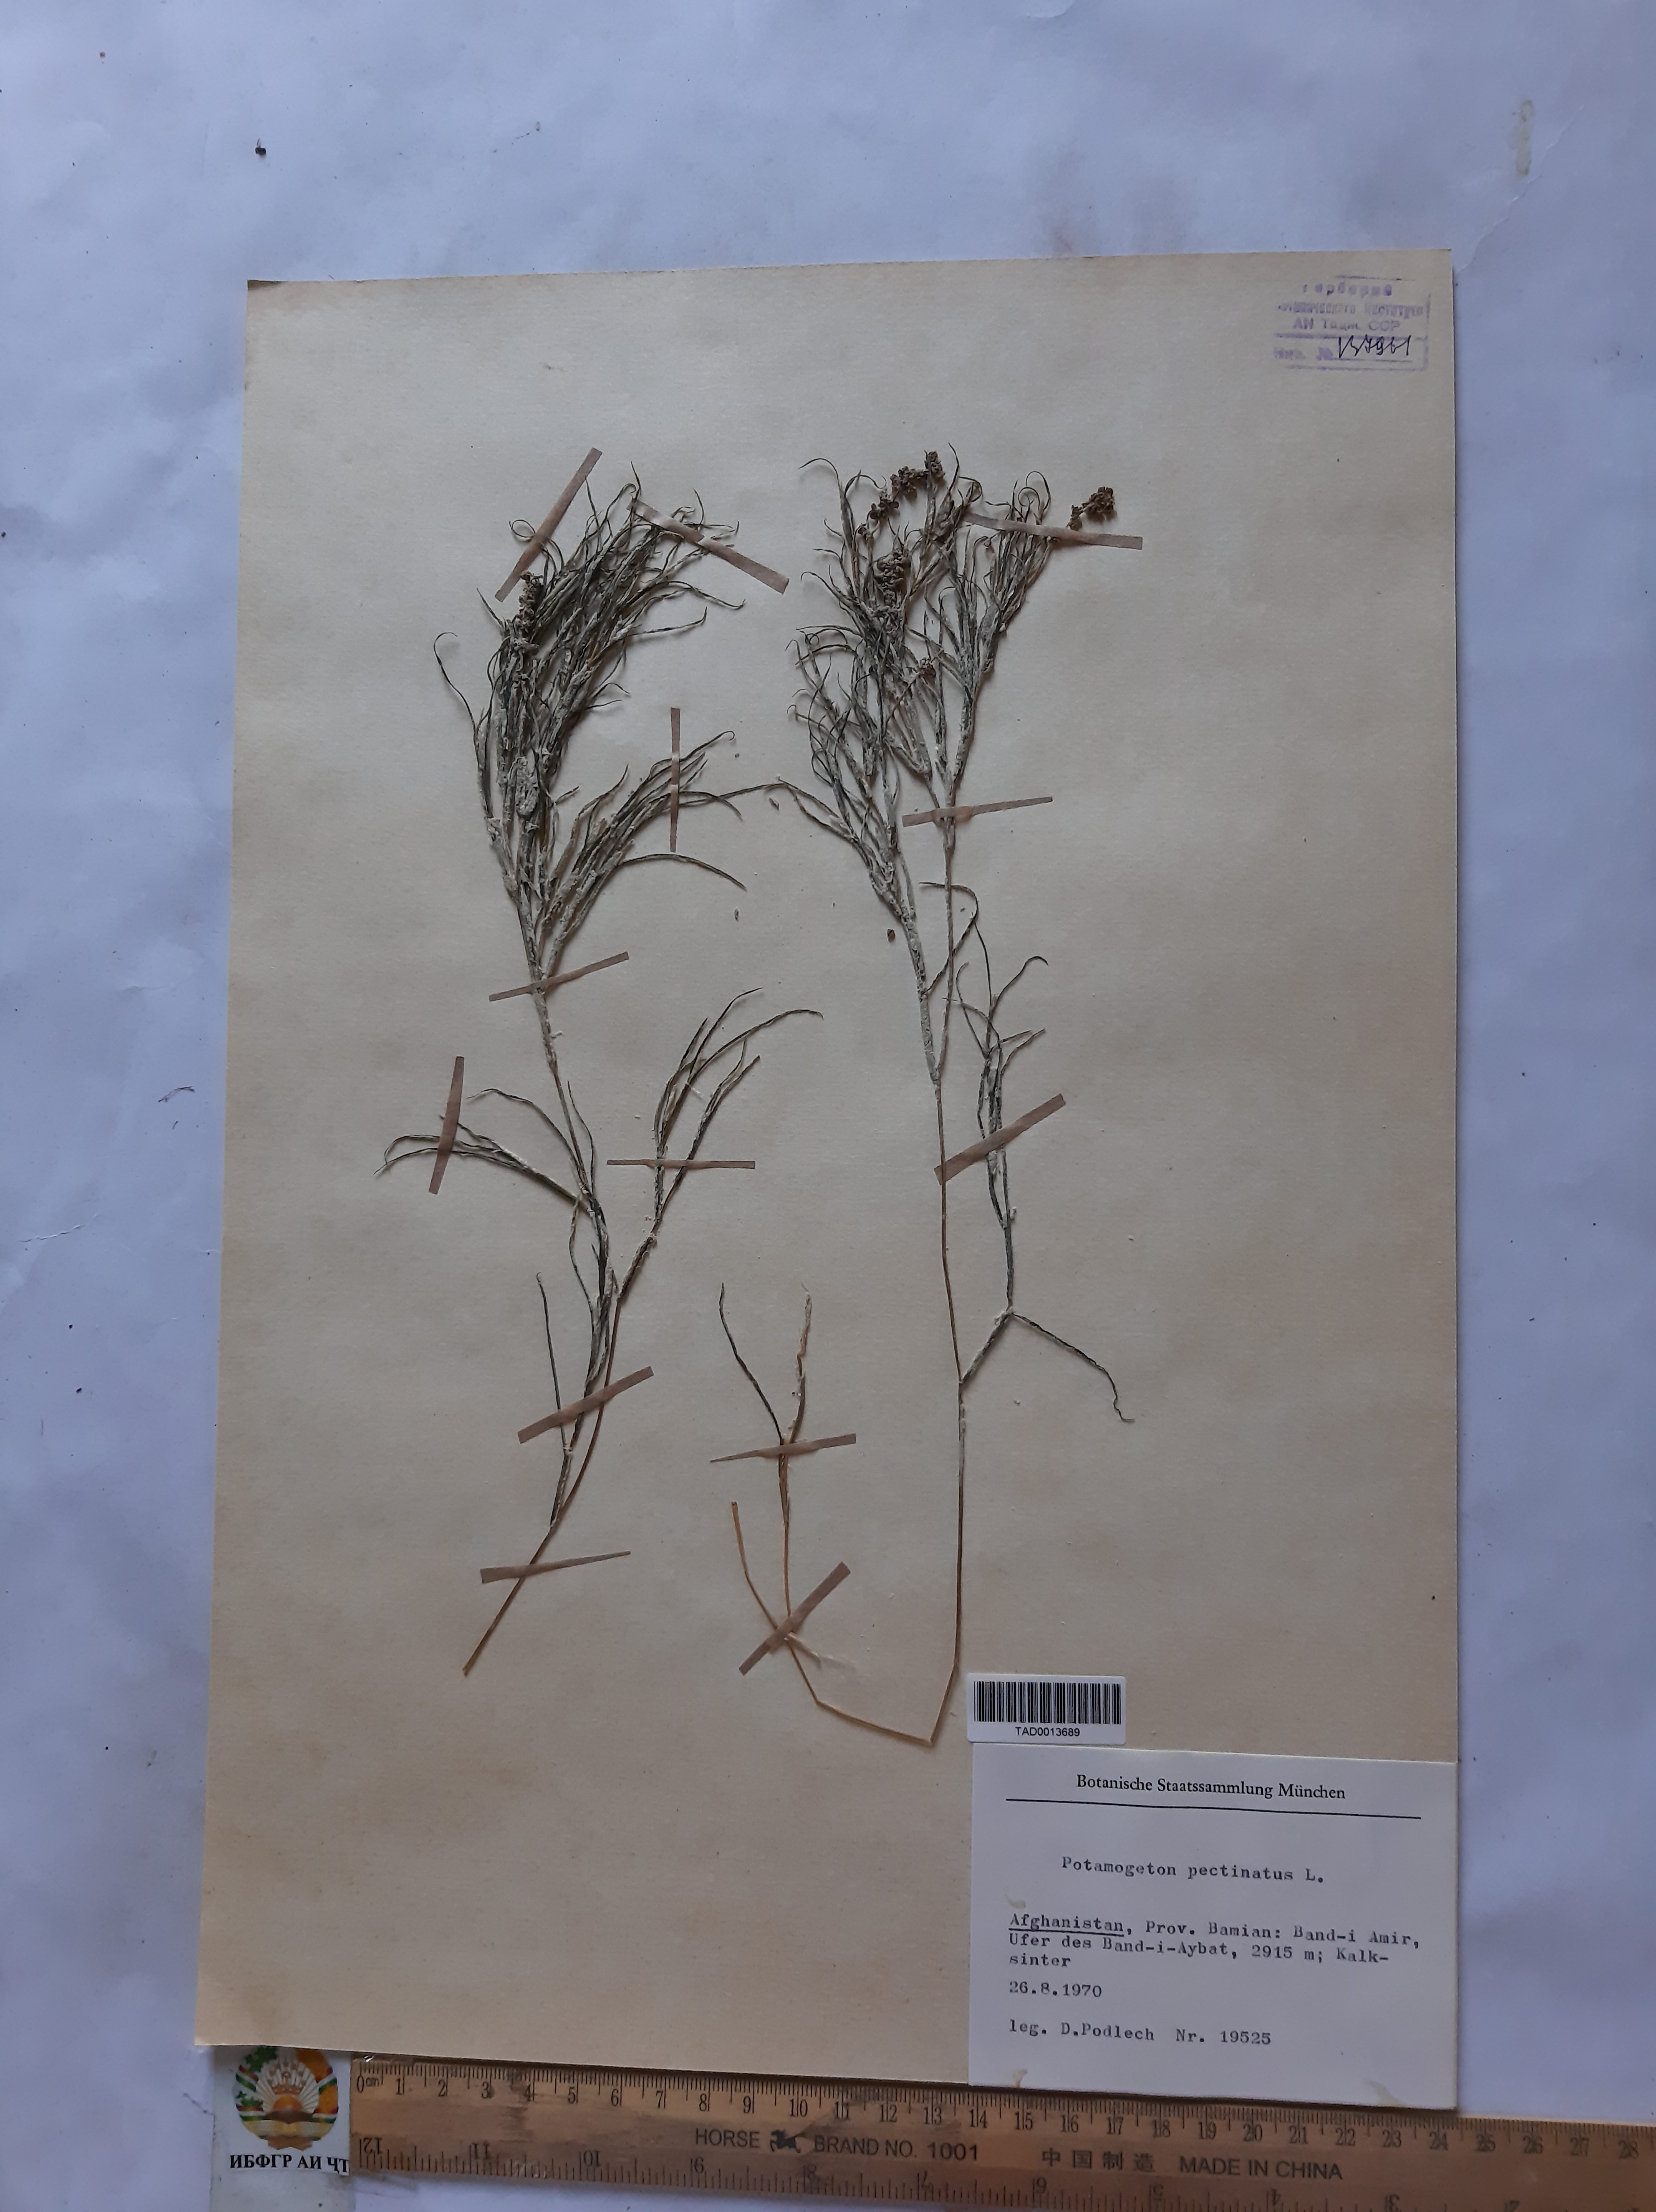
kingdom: Plantae
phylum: Tracheophyta
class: Liliopsida
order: Alismatales
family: Potamogetonaceae
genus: Potamogeton
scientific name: Potamogeton pusillus
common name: Lesser pondweed
